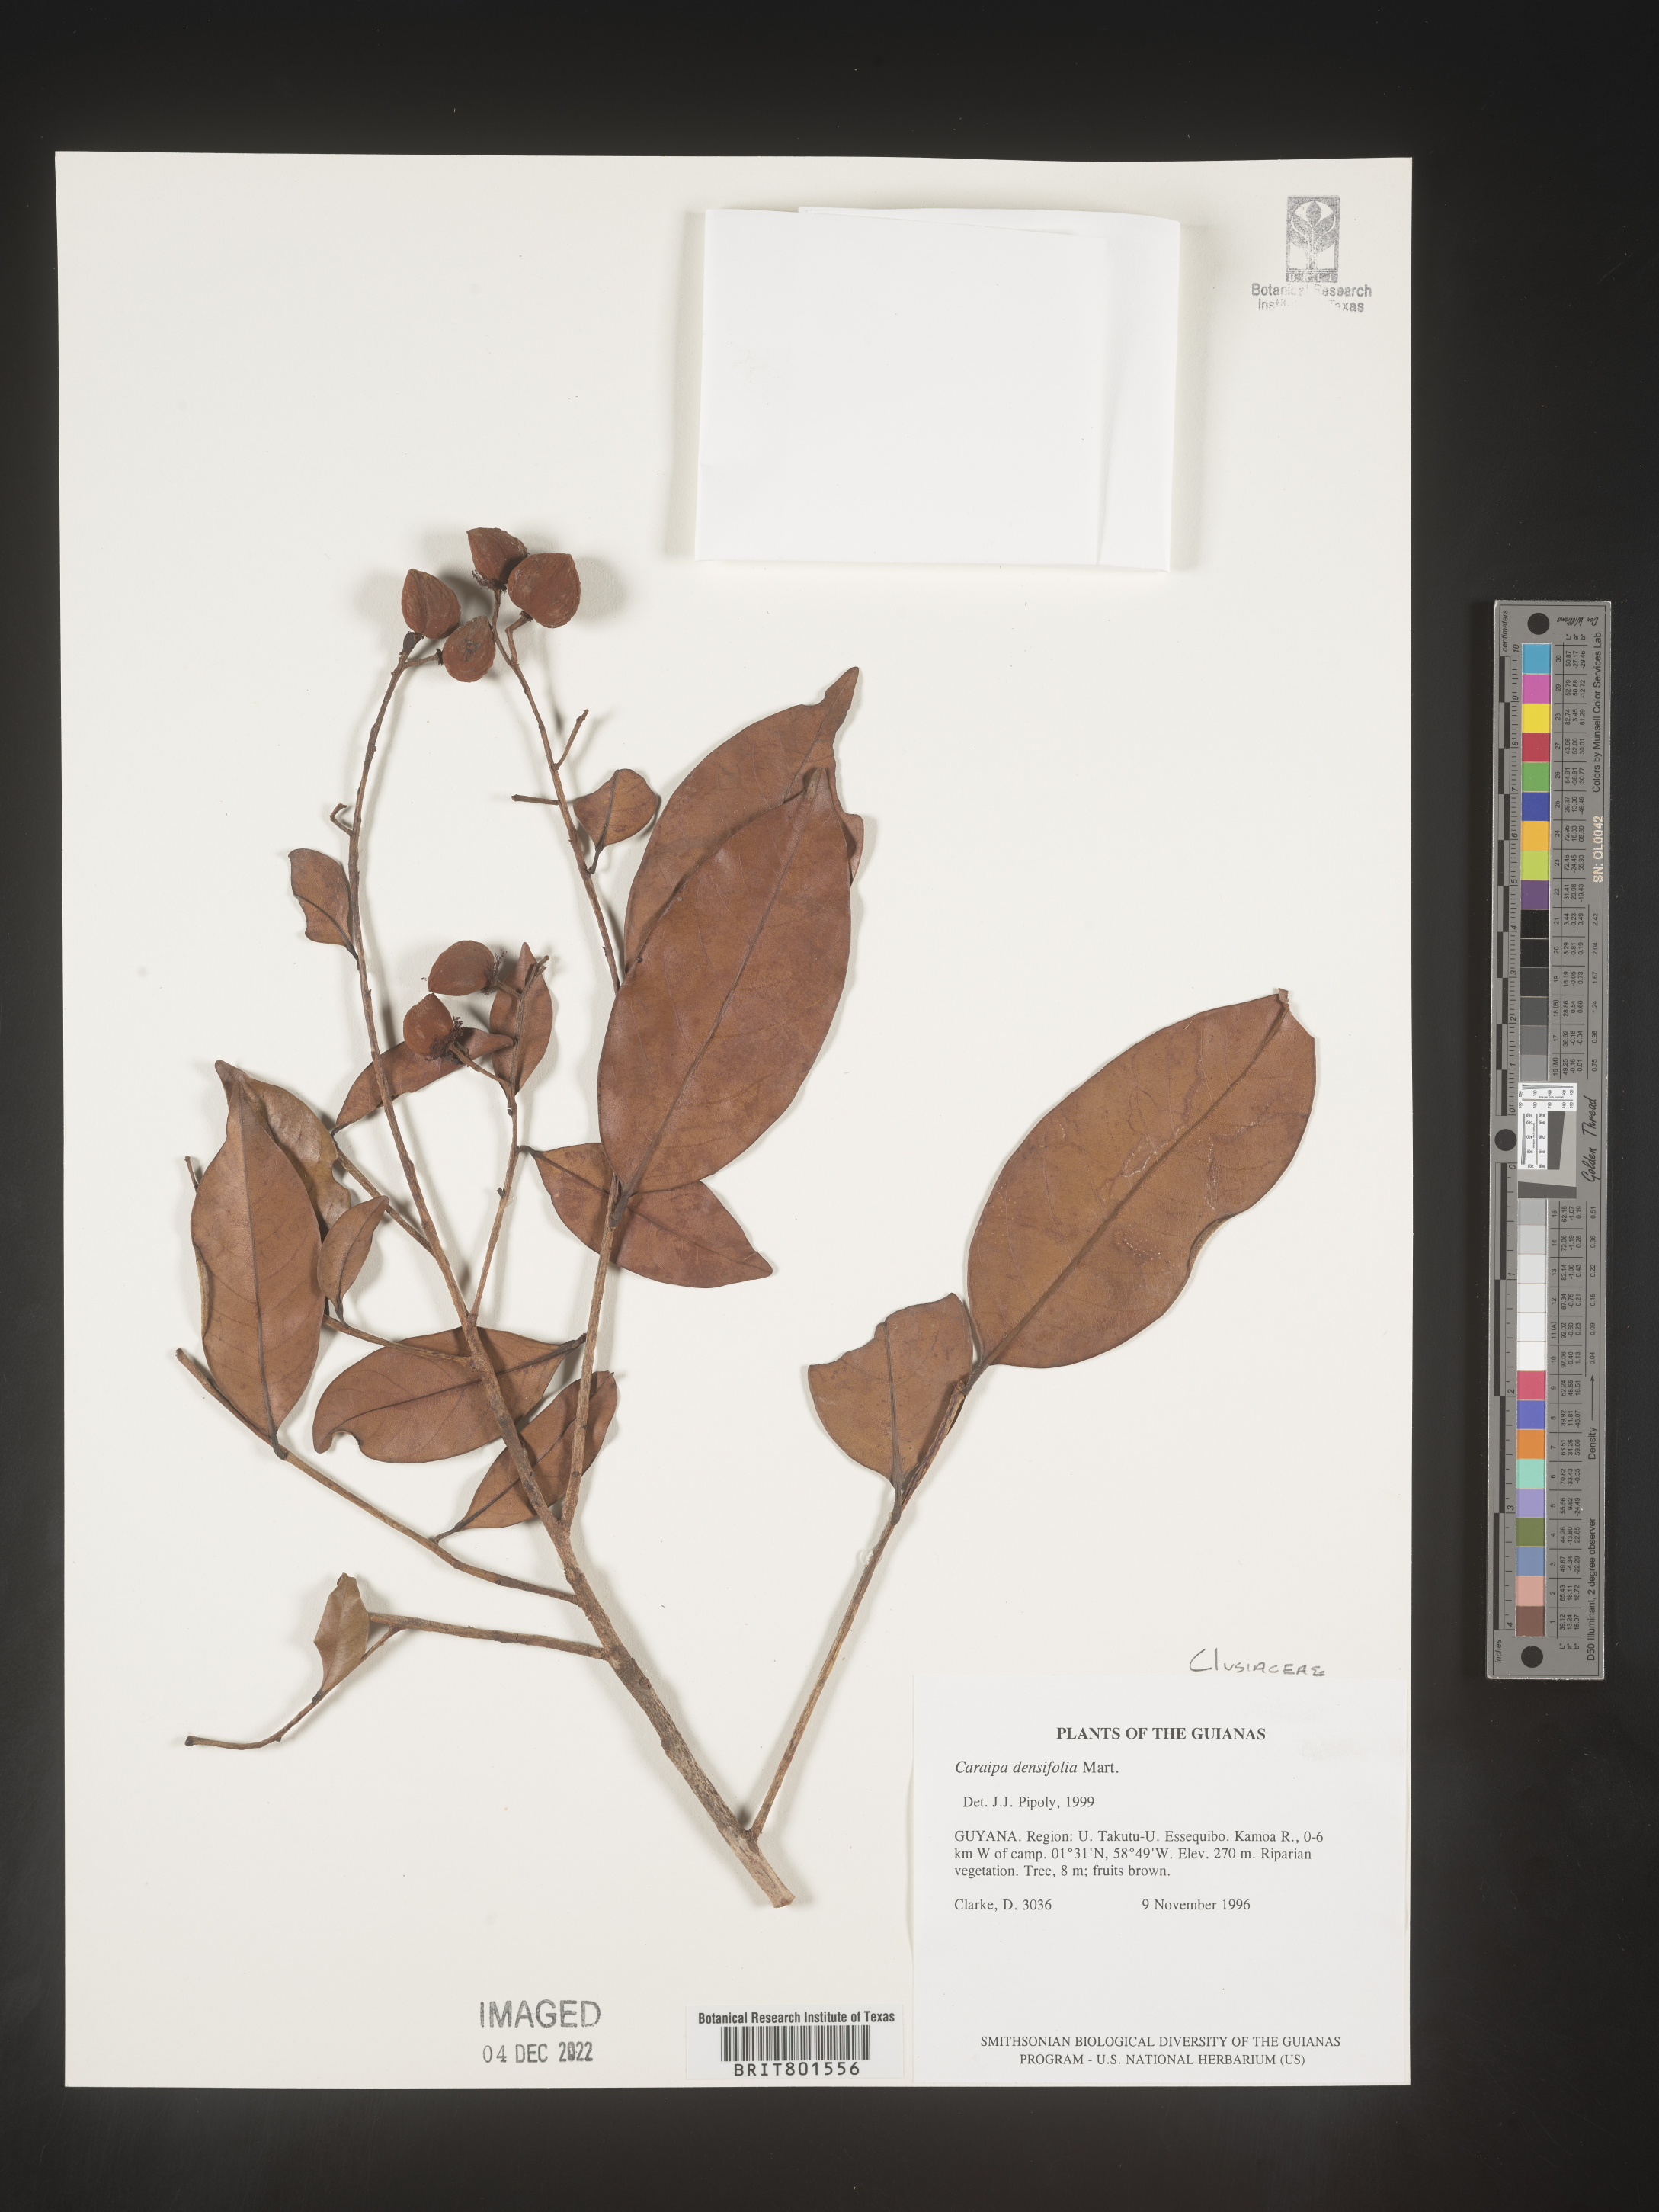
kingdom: Plantae
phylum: Tracheophyta
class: Magnoliopsida
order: Malpighiales
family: Calophyllaceae
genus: Caraipa
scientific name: Caraipa
